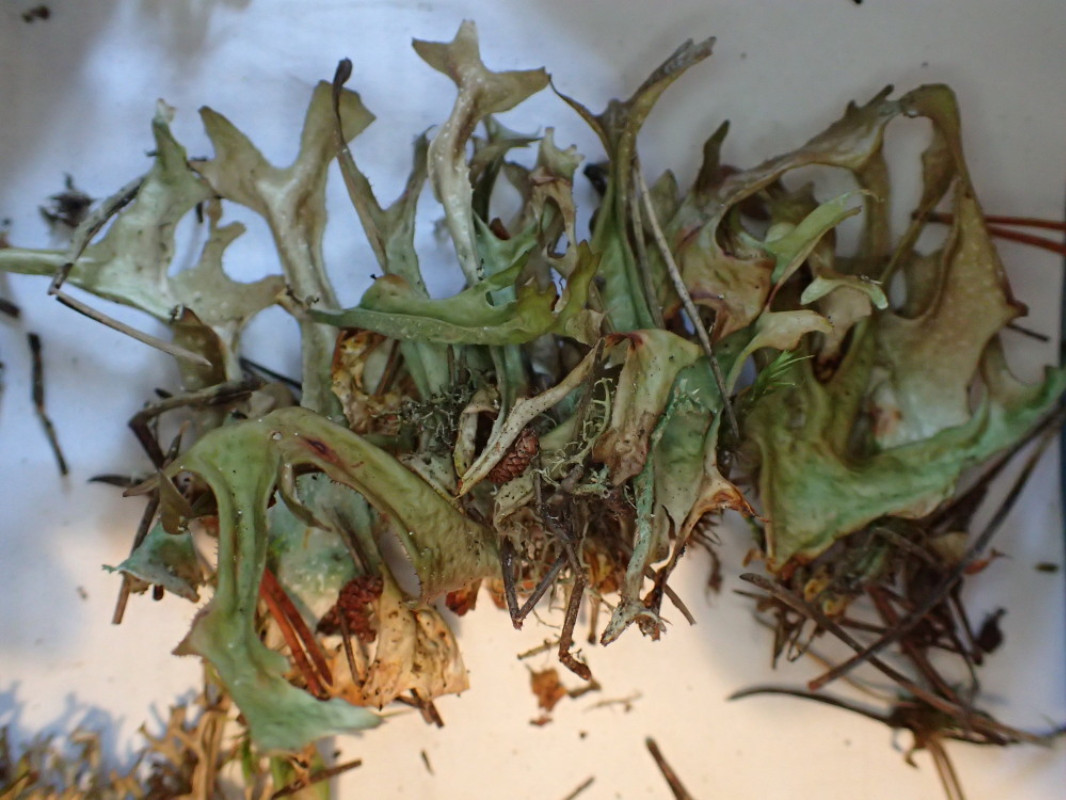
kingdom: Fungi
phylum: Ascomycota
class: Lecanoromycetes
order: Lecanorales
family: Parmeliaceae
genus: Cetraria
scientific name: Cetraria islandica
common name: islandsk kruslav
